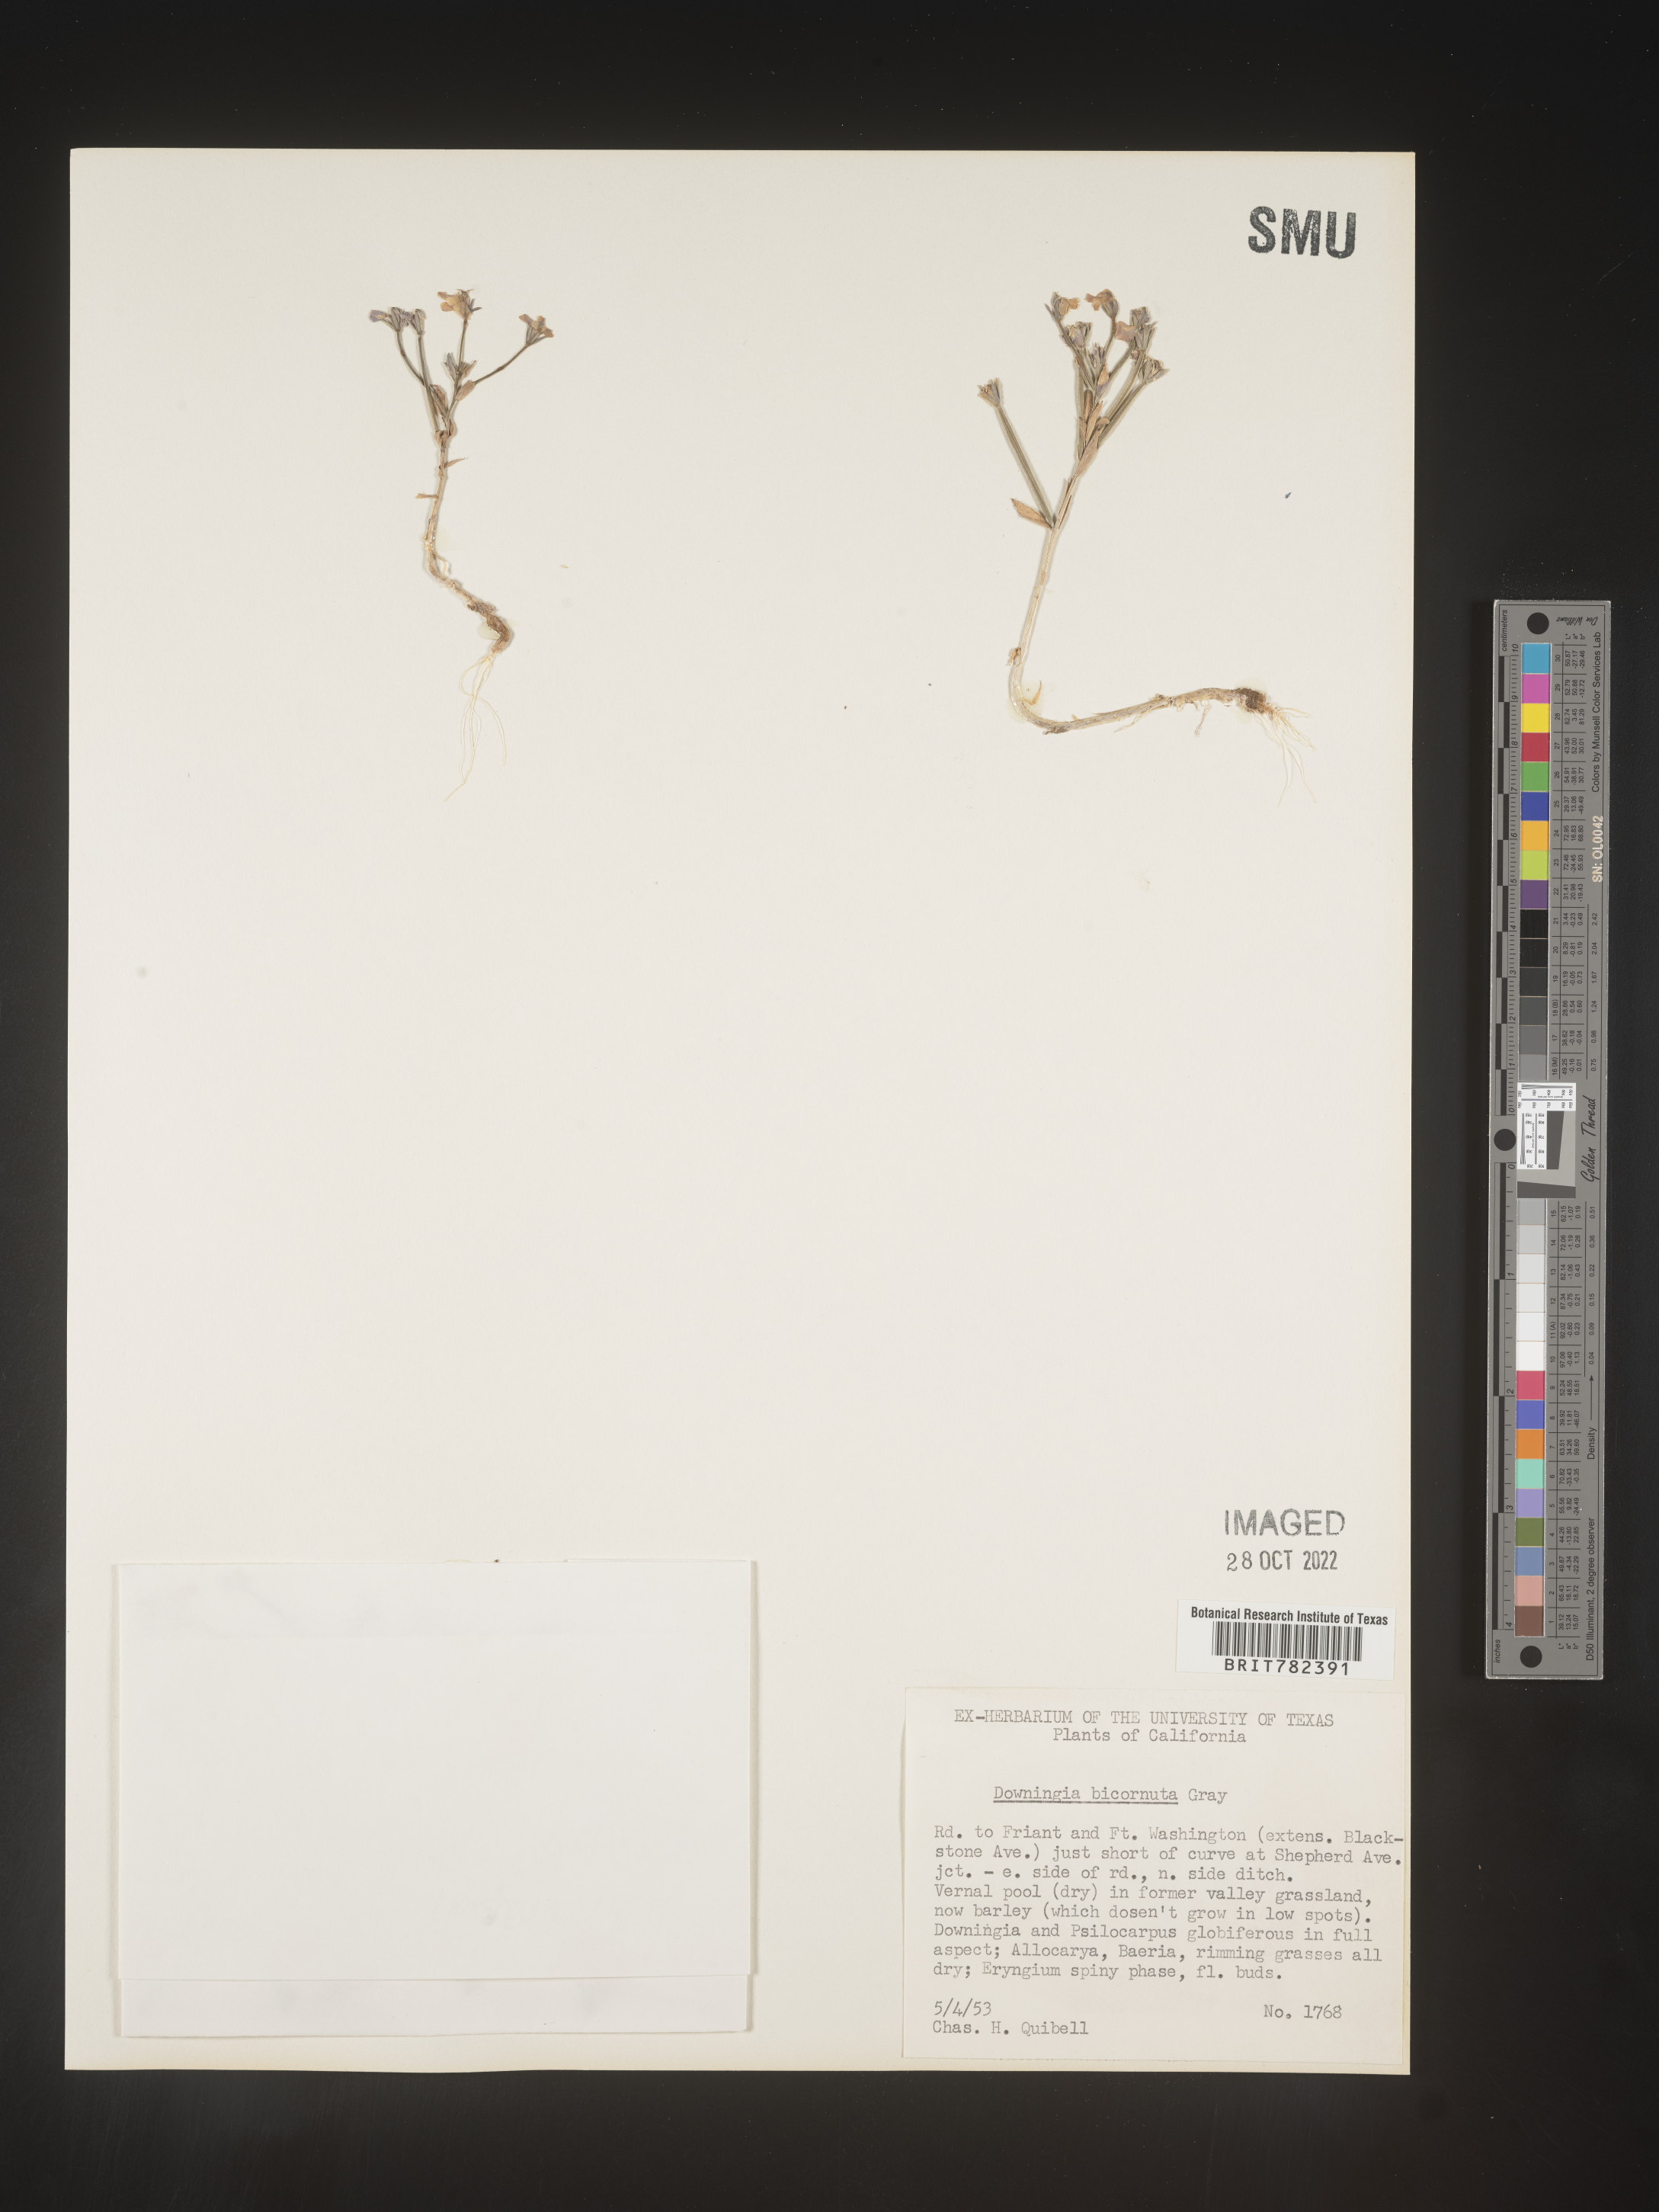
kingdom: Plantae
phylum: Tracheophyta
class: Magnoliopsida
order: Asterales
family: Campanulaceae
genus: Downingia
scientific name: Downingia
